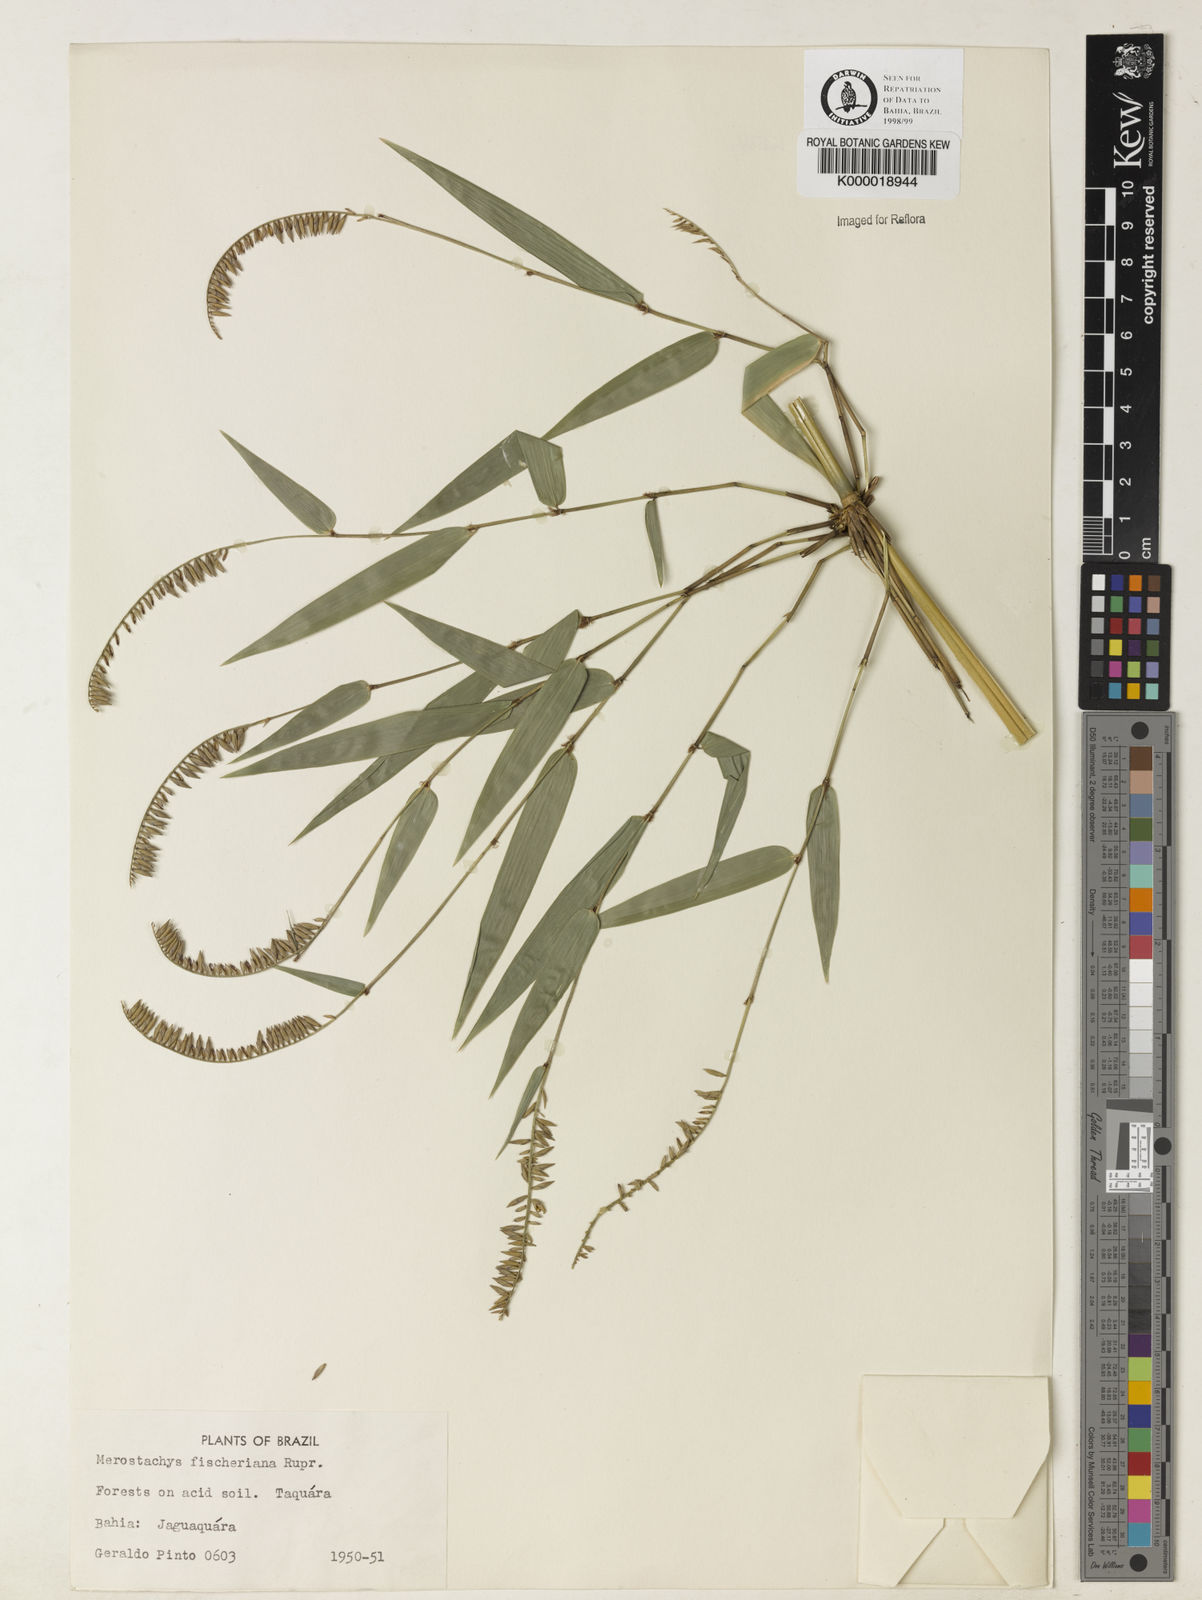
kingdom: Plantae
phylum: Tracheophyta
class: Liliopsida
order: Poales
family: Poaceae
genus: Merostachys
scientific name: Merostachys
